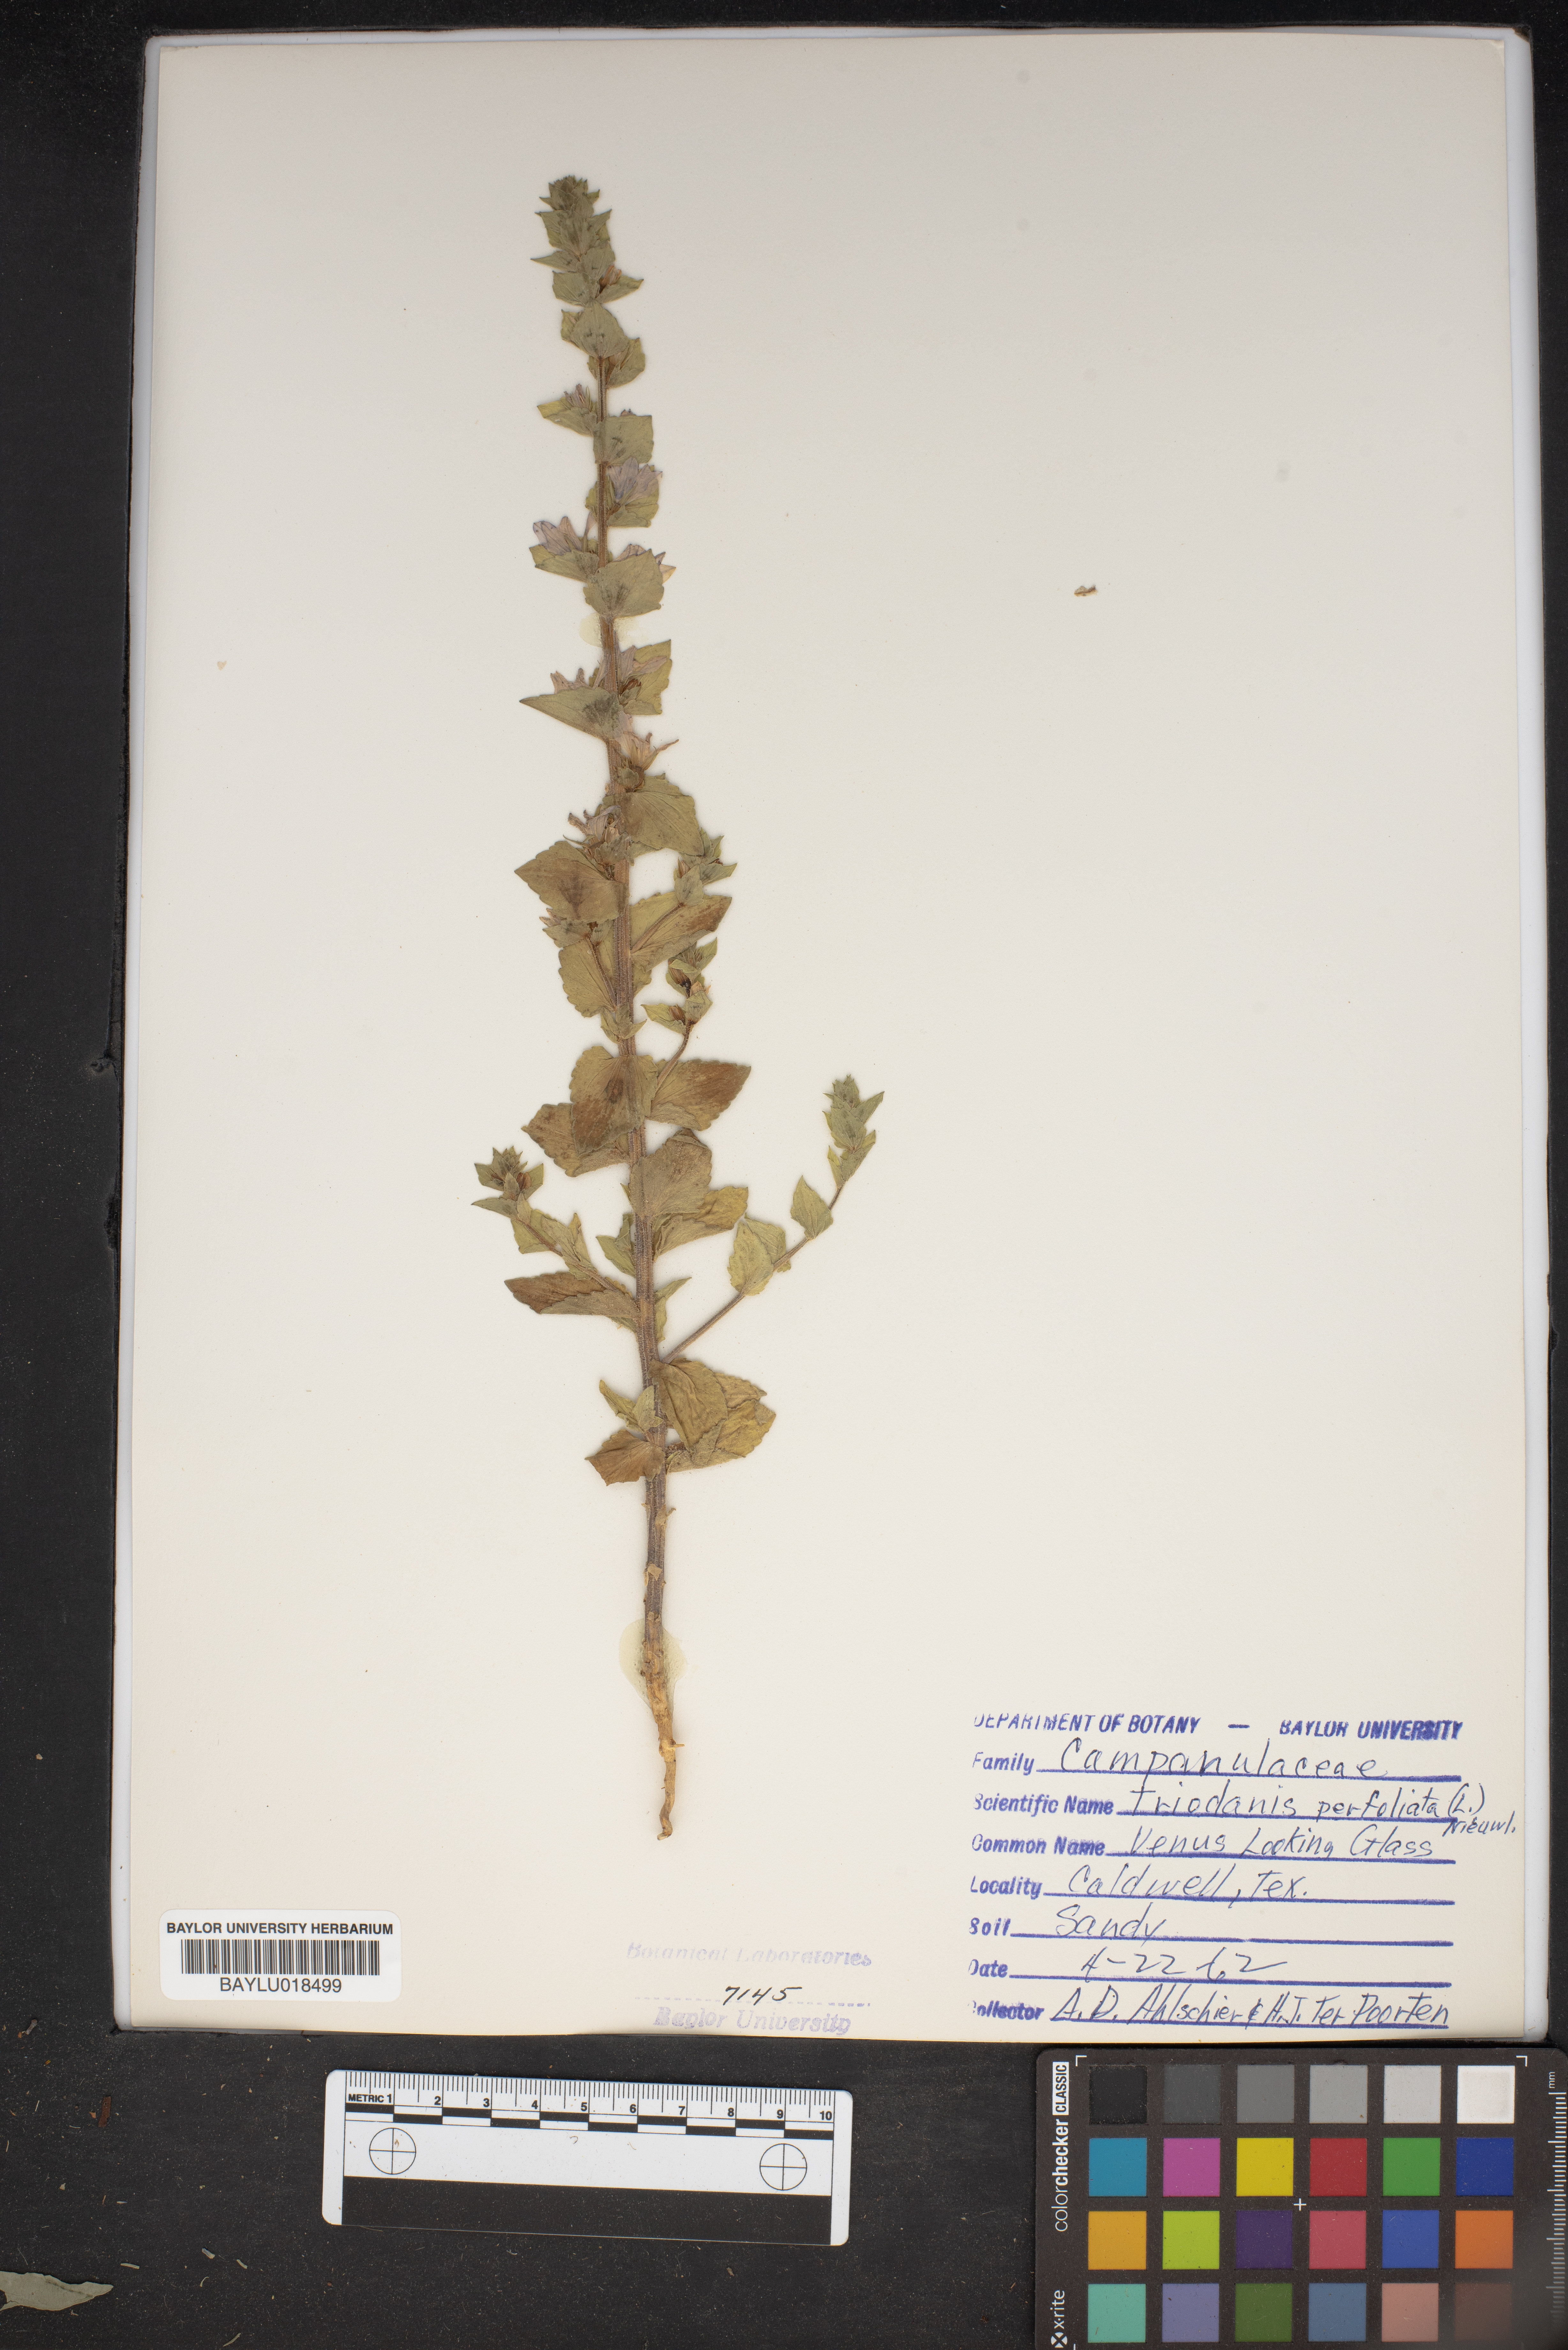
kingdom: Plantae
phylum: Tracheophyta
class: Magnoliopsida
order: Asterales
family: Campanulaceae
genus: Triodanis
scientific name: Triodanis perfoliata
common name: Clasping venus' looking-glass
